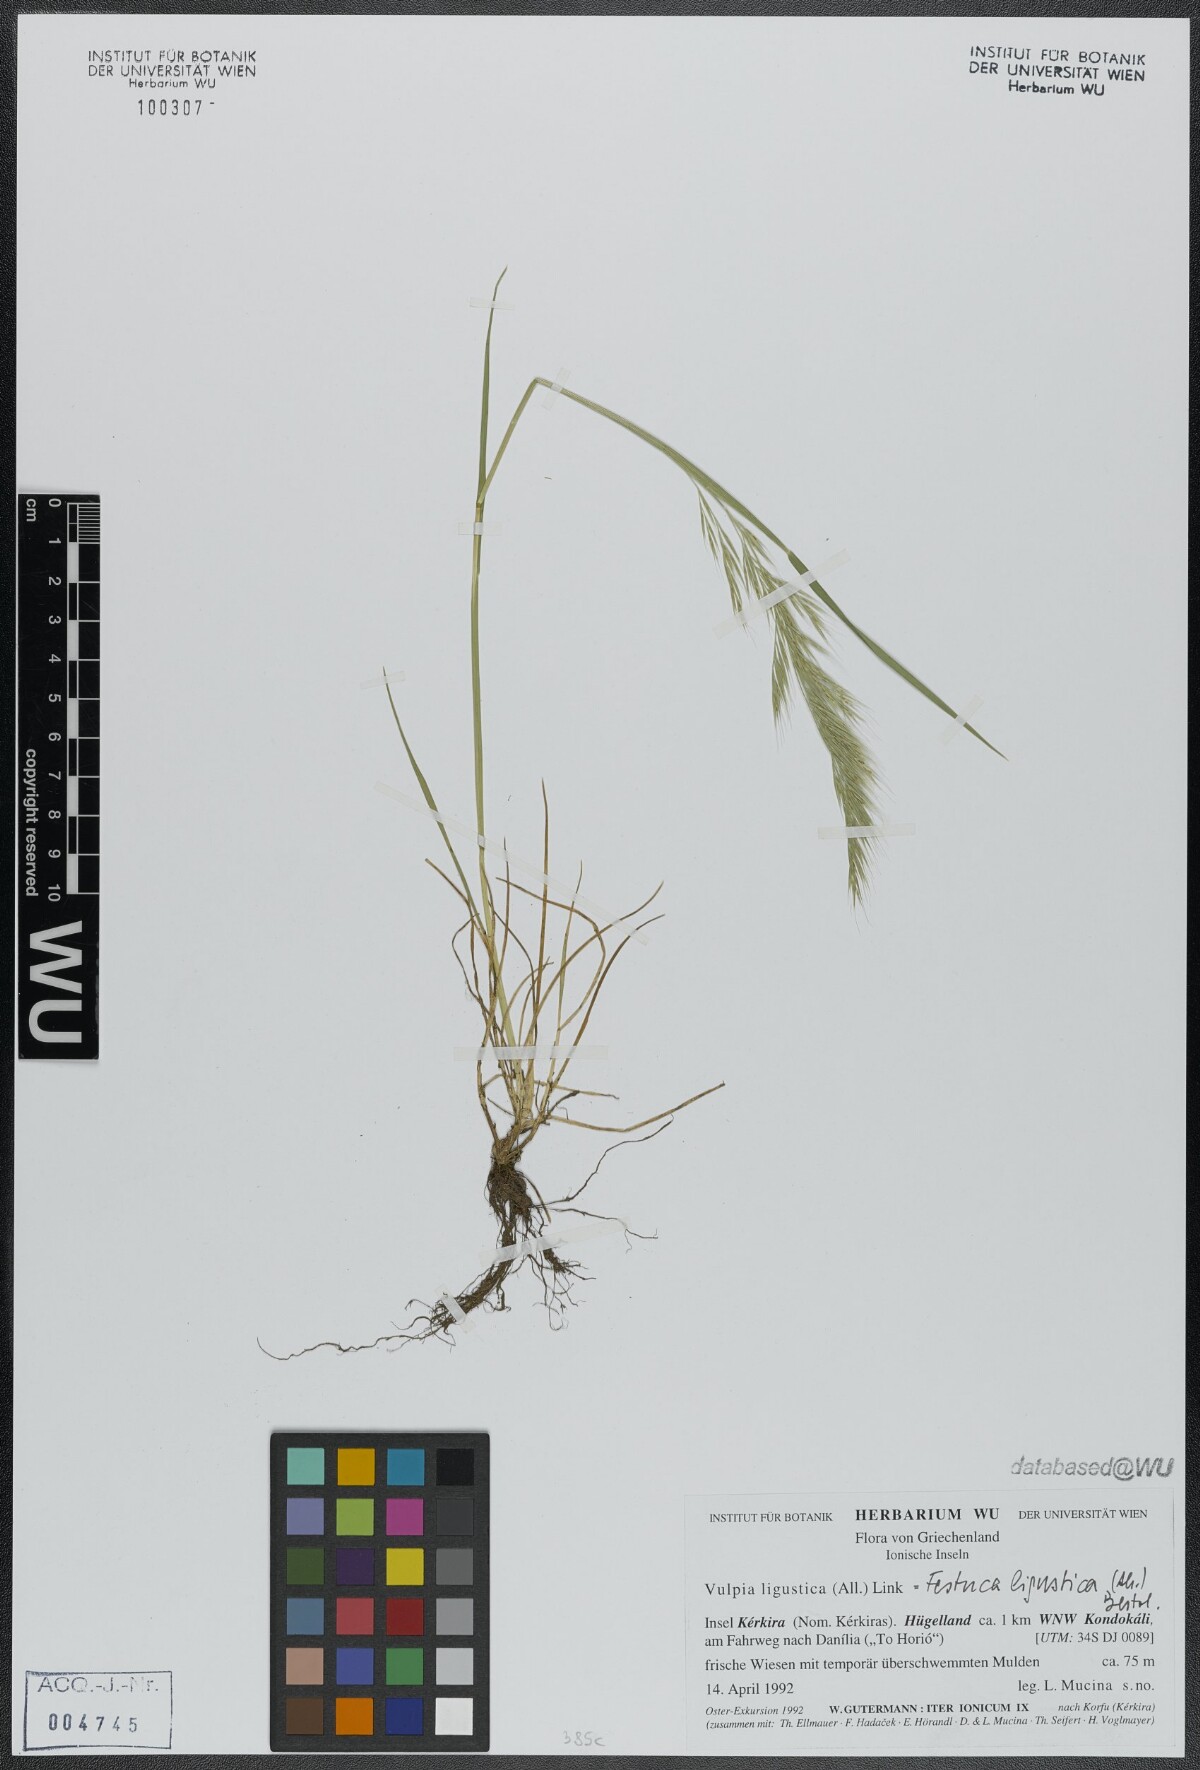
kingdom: Plantae
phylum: Tracheophyta
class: Liliopsida
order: Poales
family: Poaceae
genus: Festuca
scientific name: Festuca ligustica
